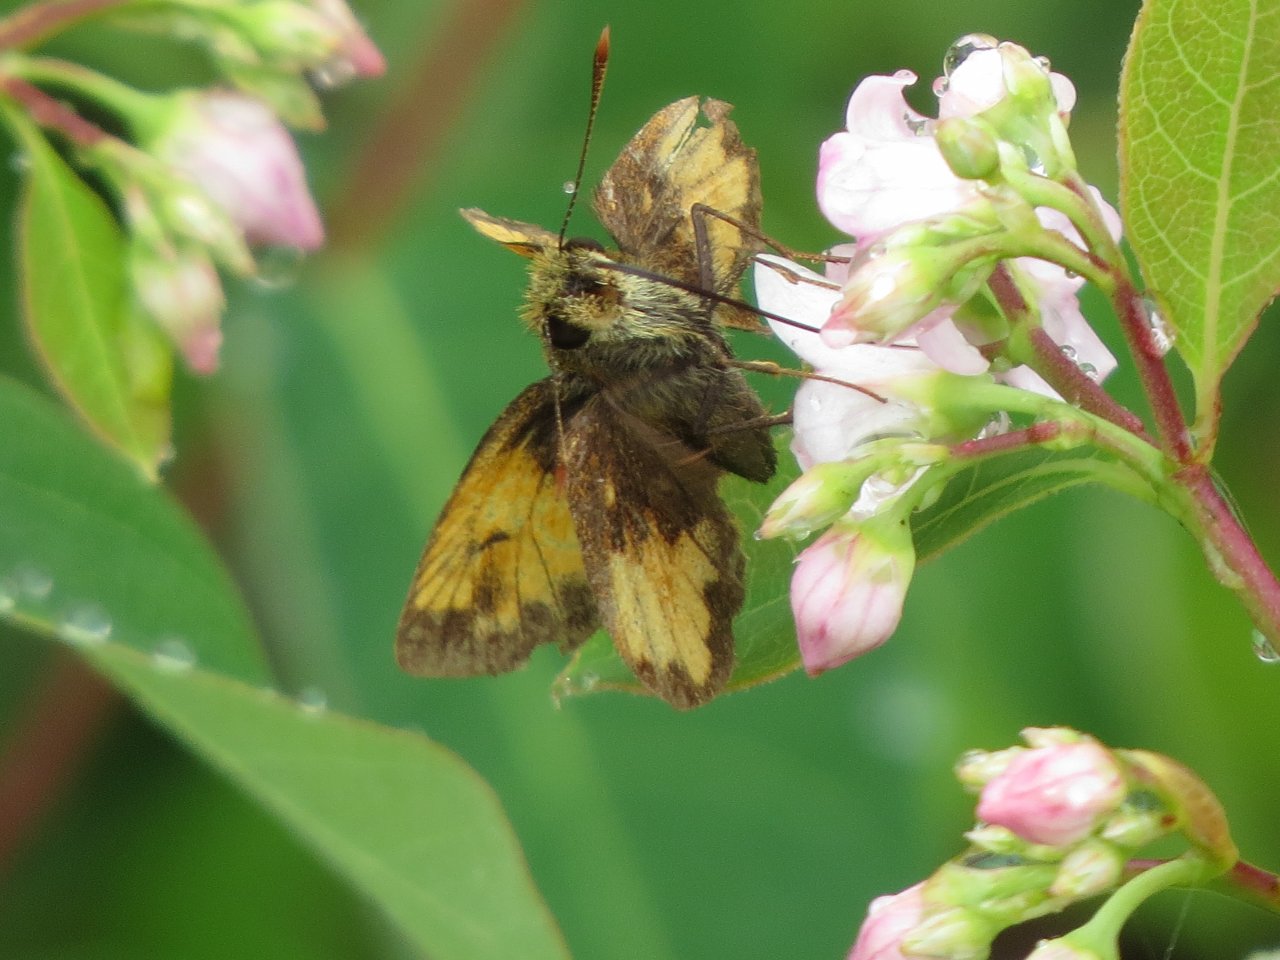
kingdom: Animalia
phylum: Arthropoda
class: Insecta
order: Lepidoptera
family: Hesperiidae
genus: Lon
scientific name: Lon hobomok
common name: Hobomok Skipper
